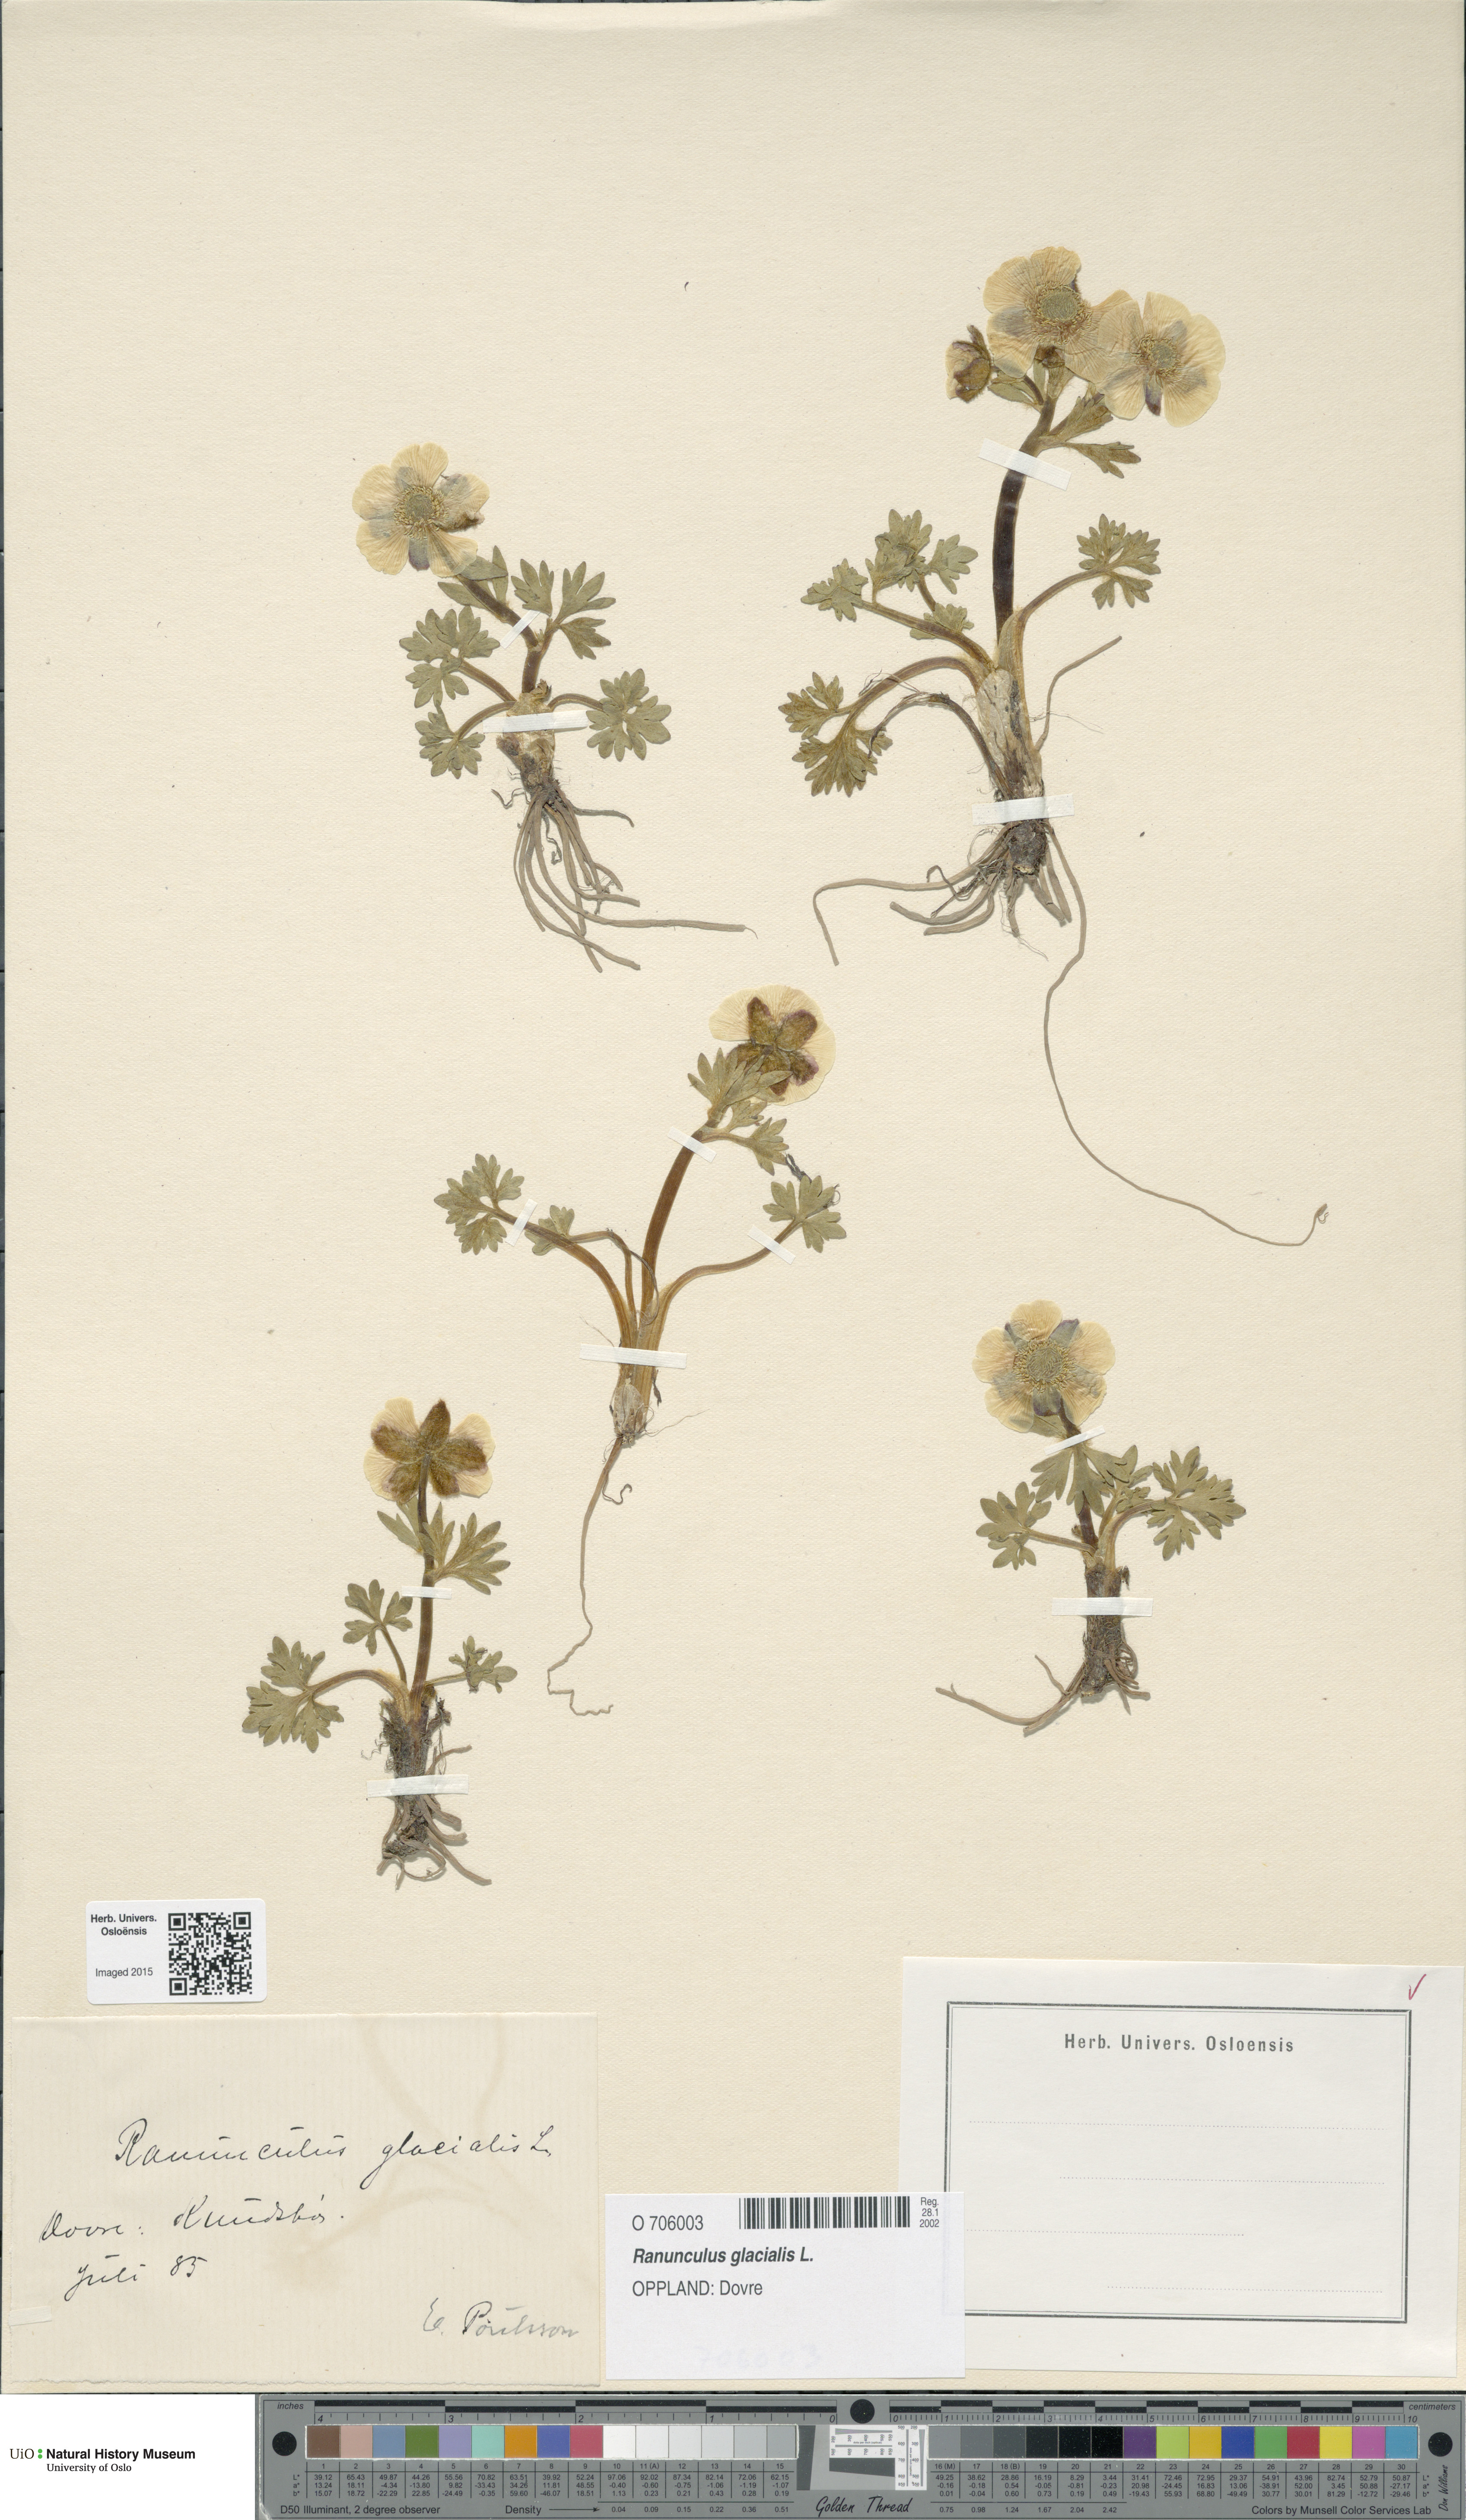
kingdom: Plantae
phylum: Tracheophyta
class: Magnoliopsida
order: Ranunculales
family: Ranunculaceae
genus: Ranunculus
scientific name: Ranunculus glacialis
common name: Glacier buttercup
